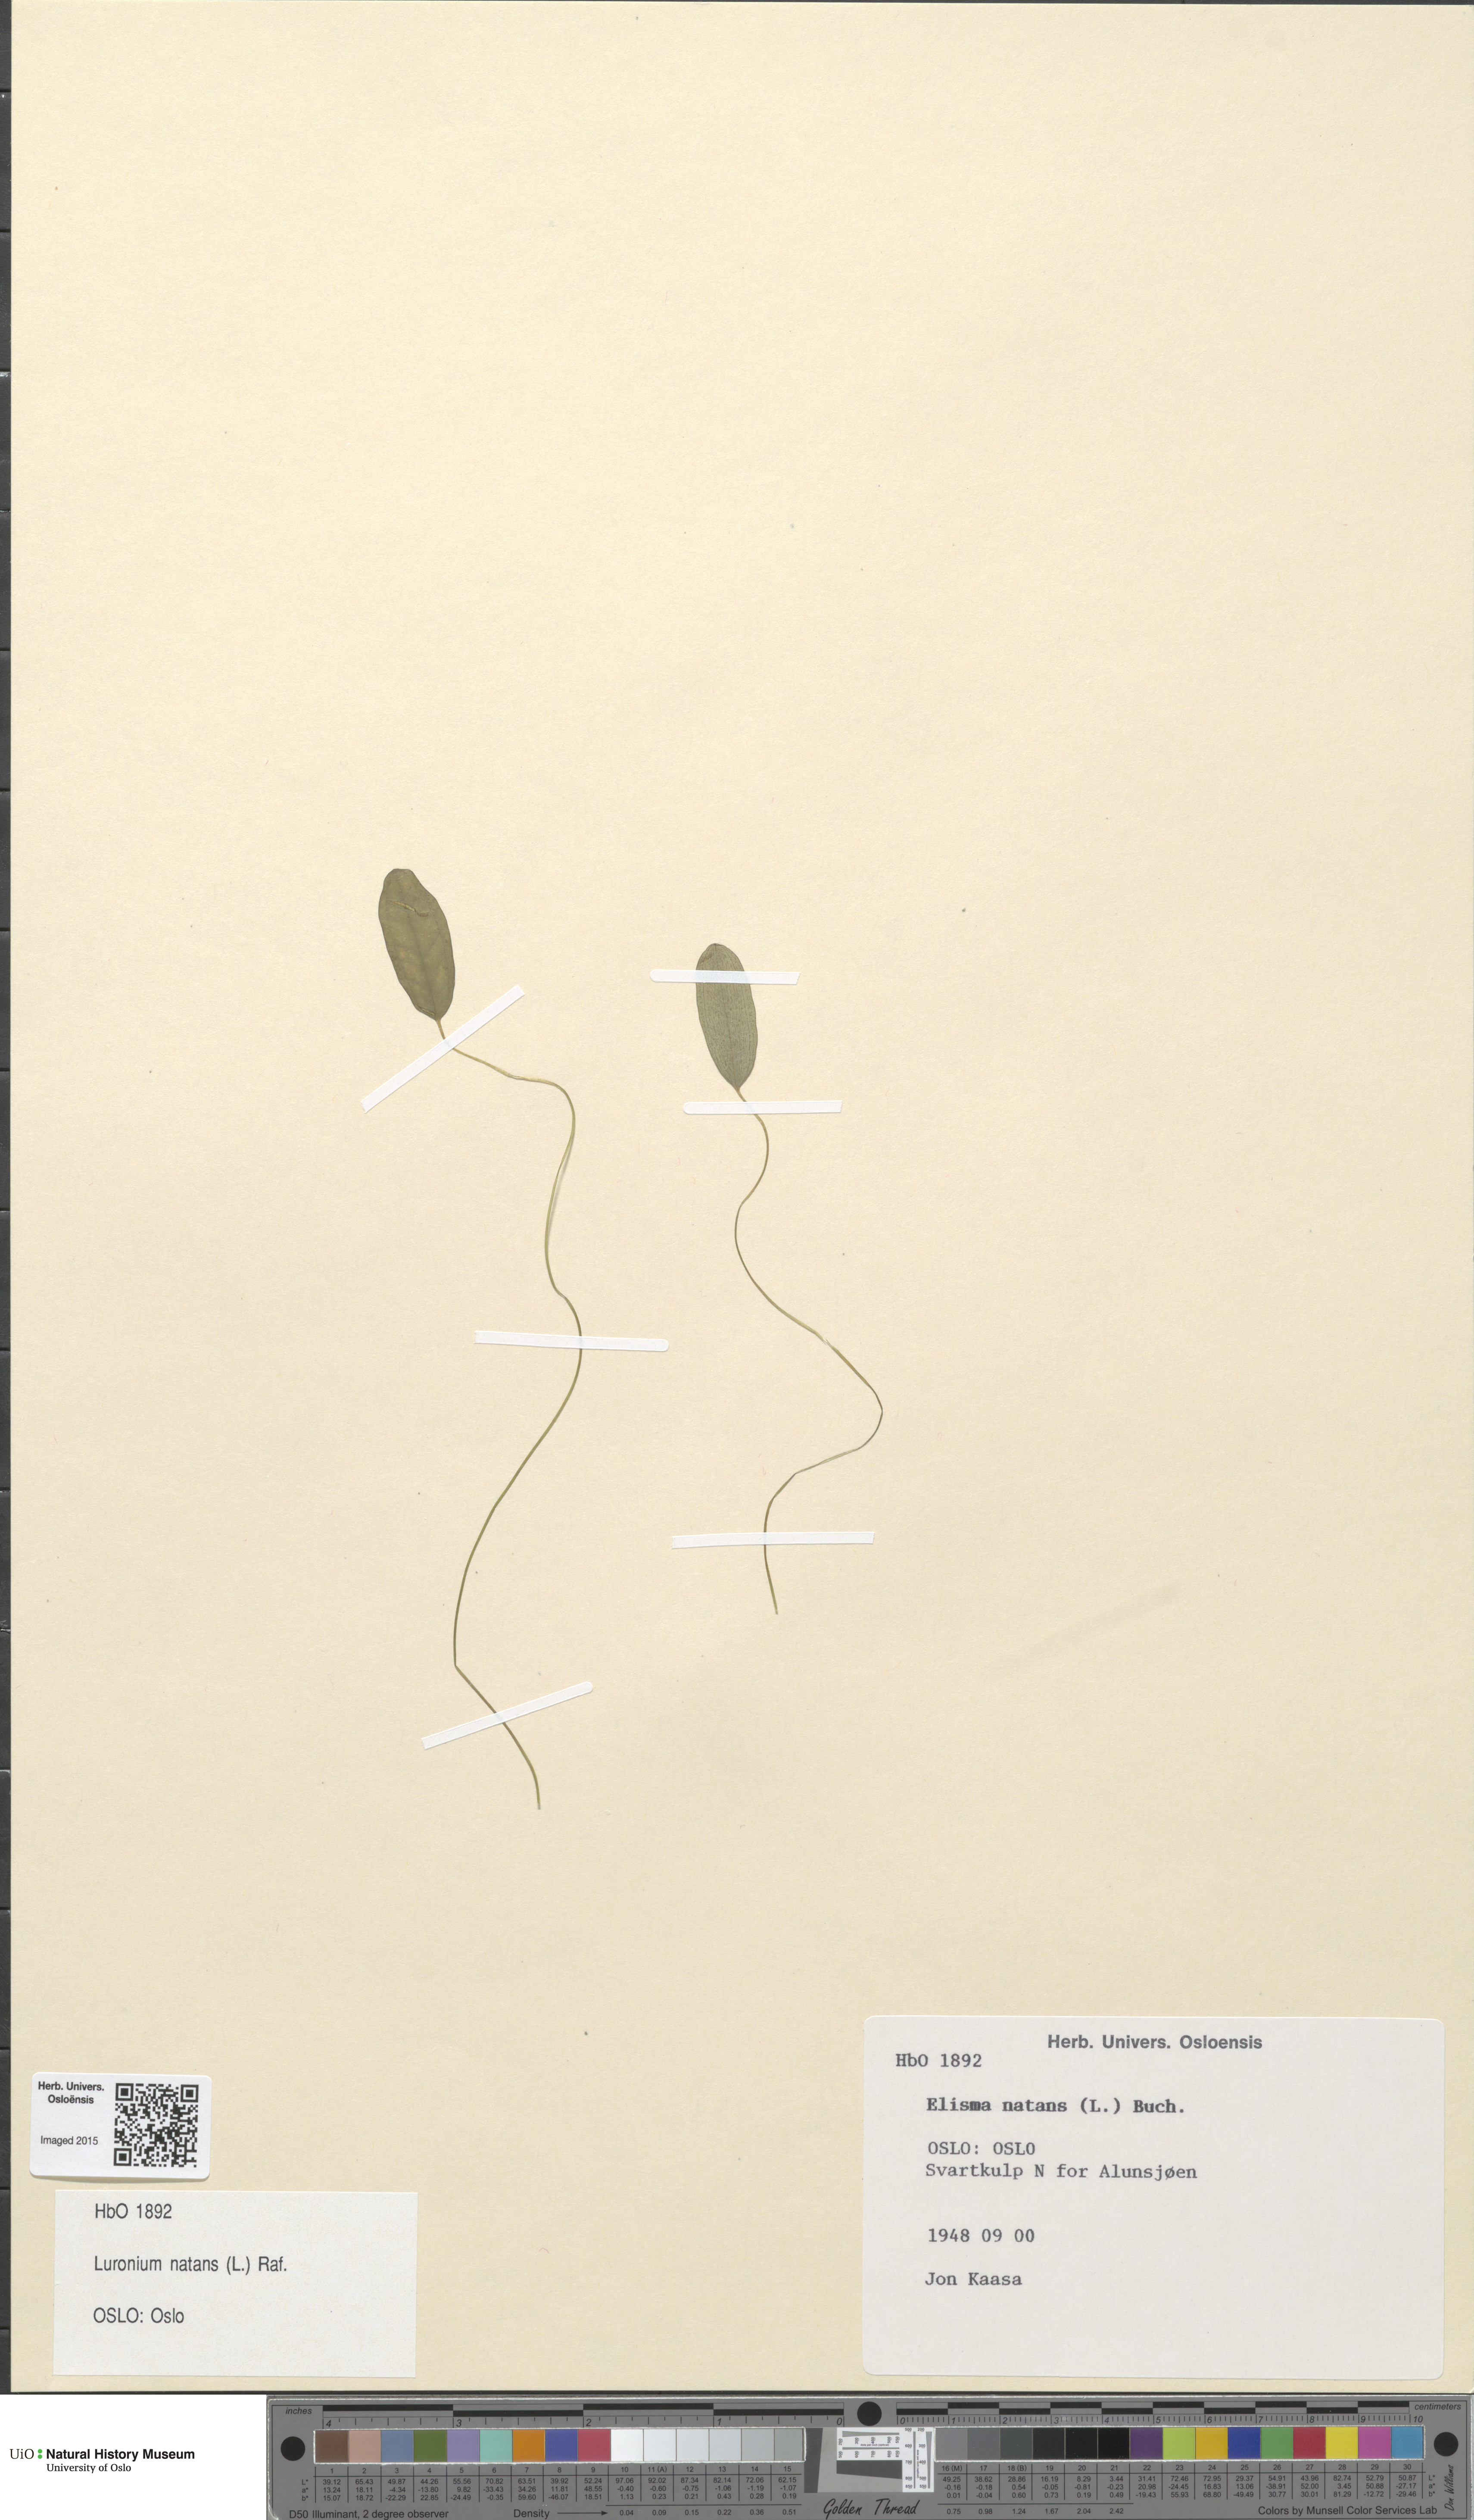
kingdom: Plantae
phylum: Tracheophyta
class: Liliopsida
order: Alismatales
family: Alismataceae
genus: Luronium
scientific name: Luronium natans
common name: Floating water-plantain
